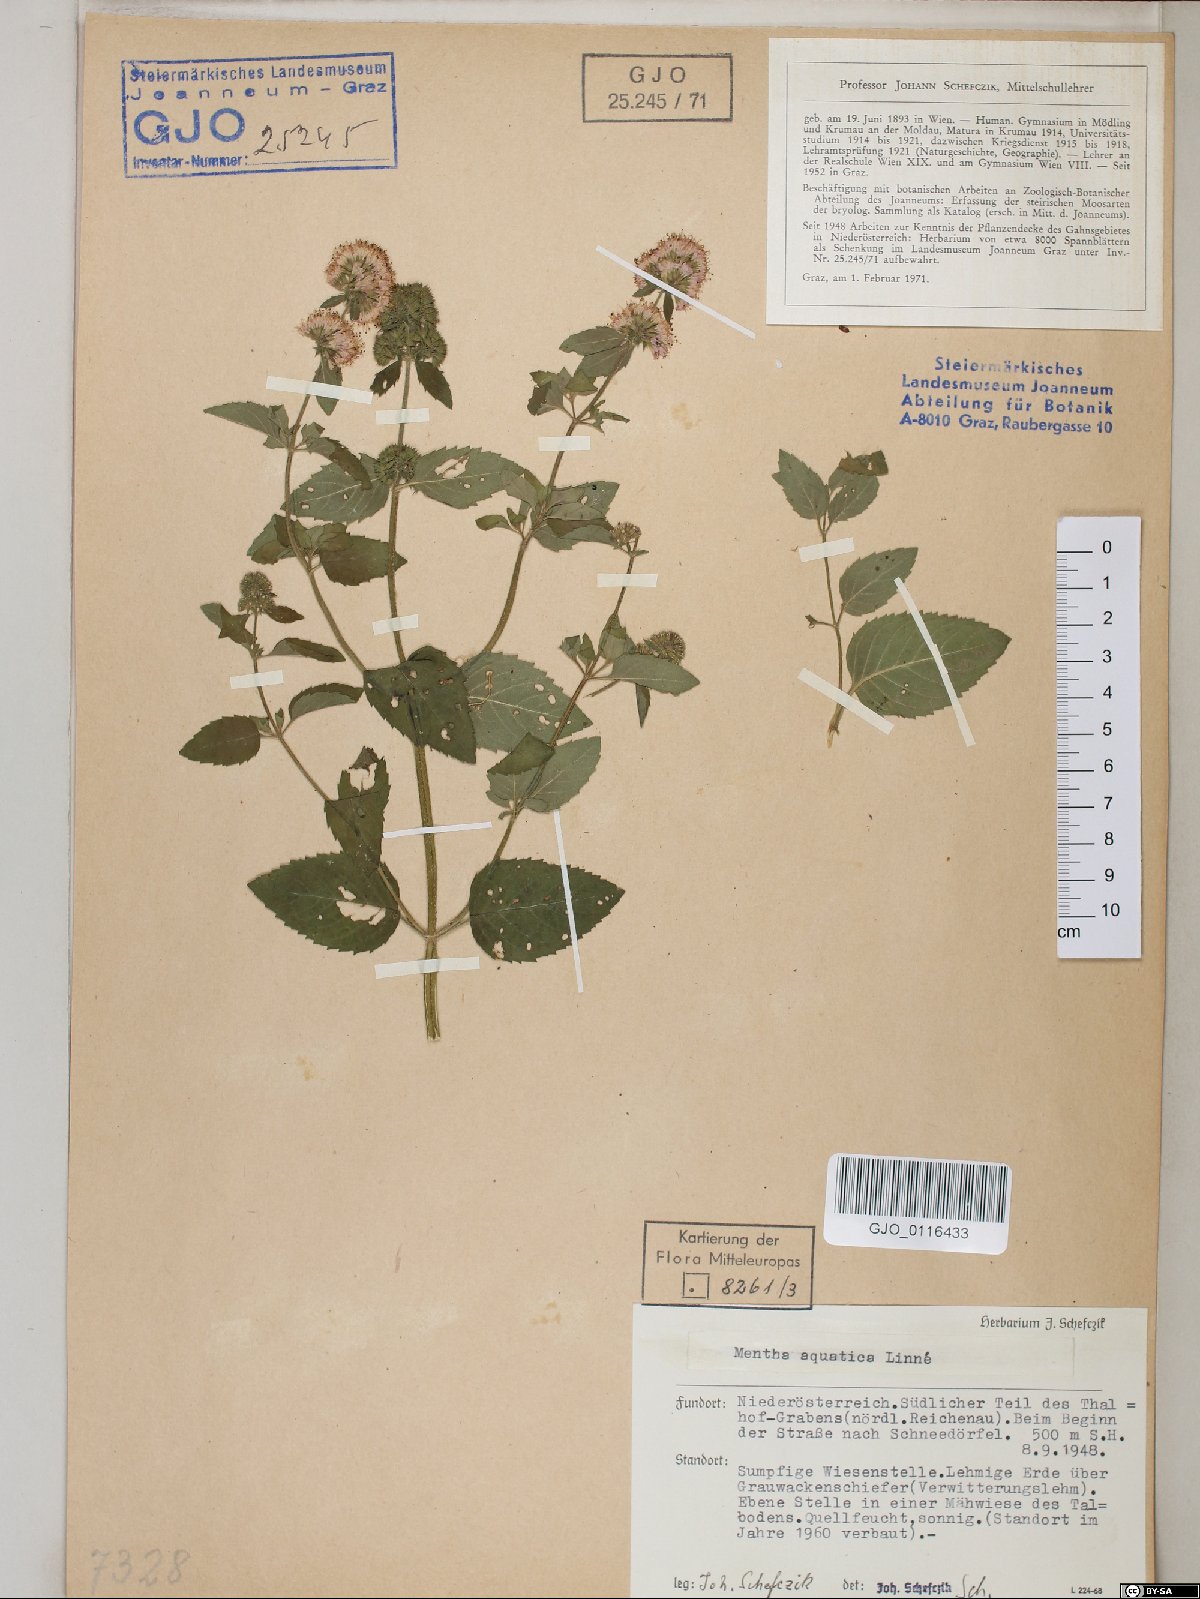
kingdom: Plantae
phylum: Tracheophyta
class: Magnoliopsida
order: Lamiales
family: Lamiaceae
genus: Mentha
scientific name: Mentha aquatica
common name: Water mint
